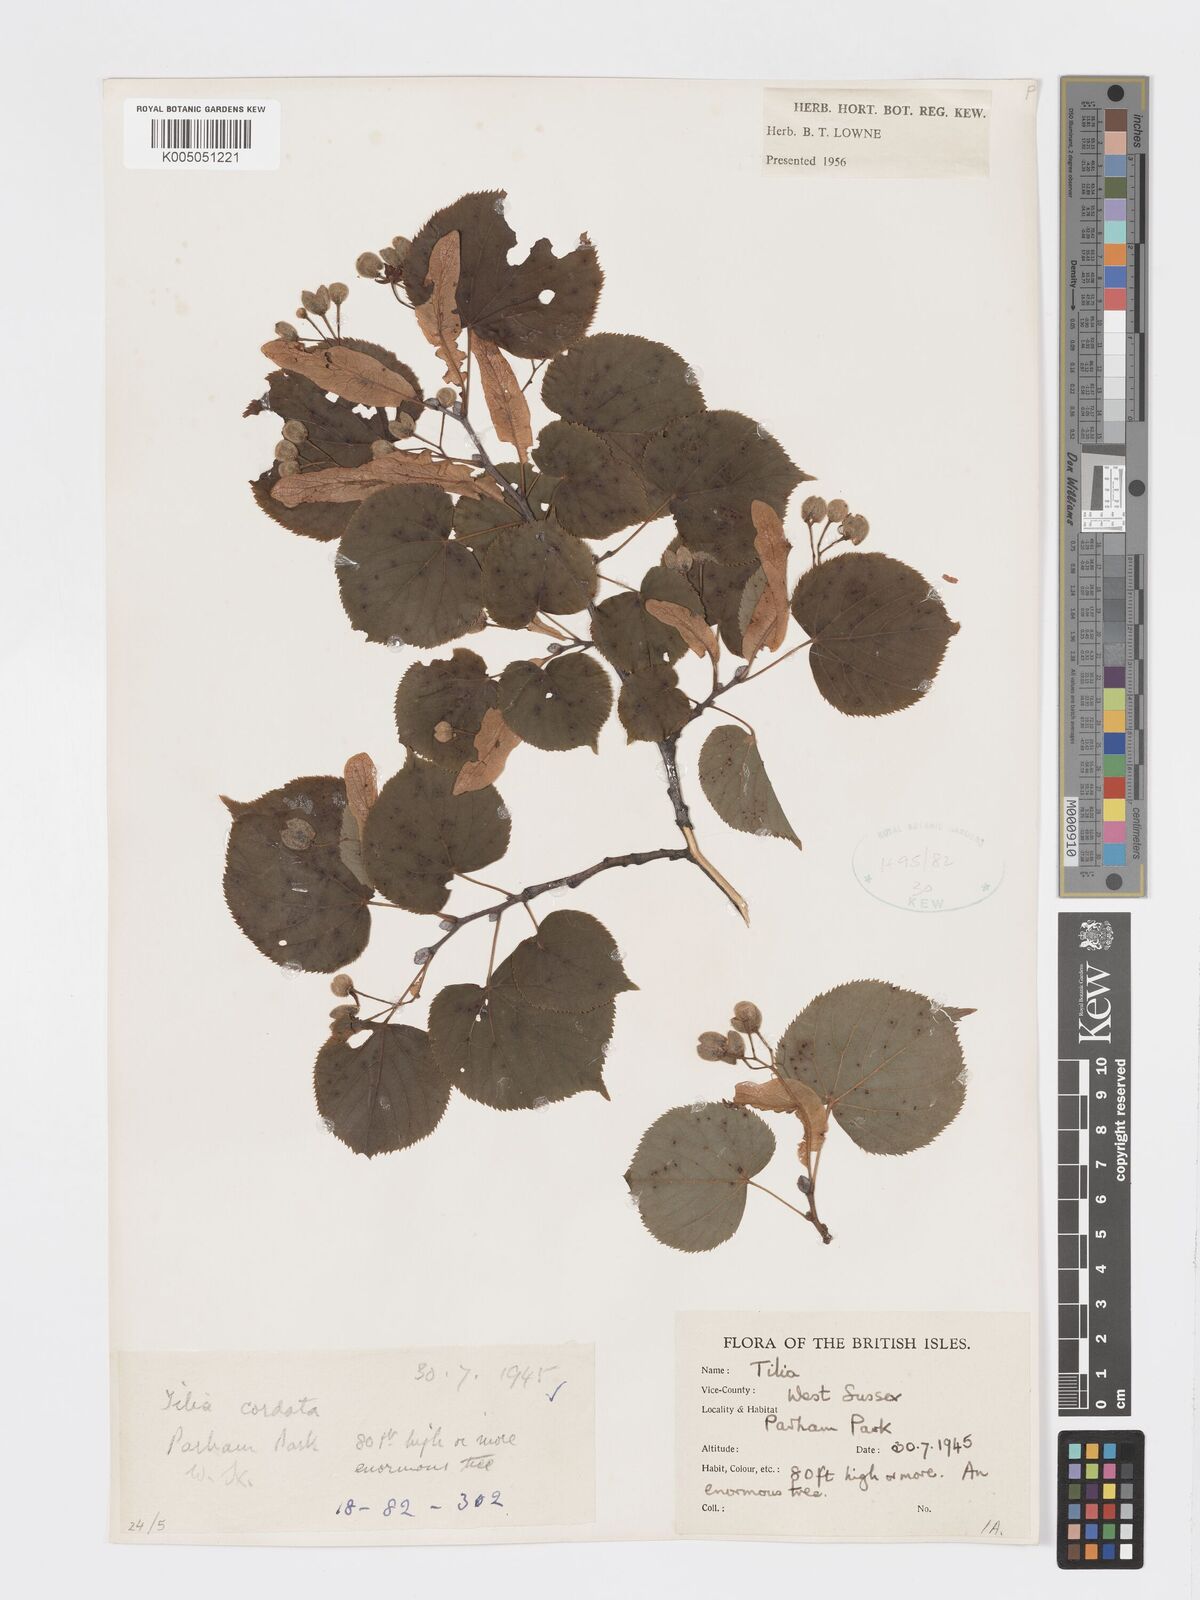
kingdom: Plantae
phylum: Tracheophyta
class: Magnoliopsida
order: Malvales
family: Malvaceae
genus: Tilia
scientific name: Tilia cordata
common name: Small-leaved lime
